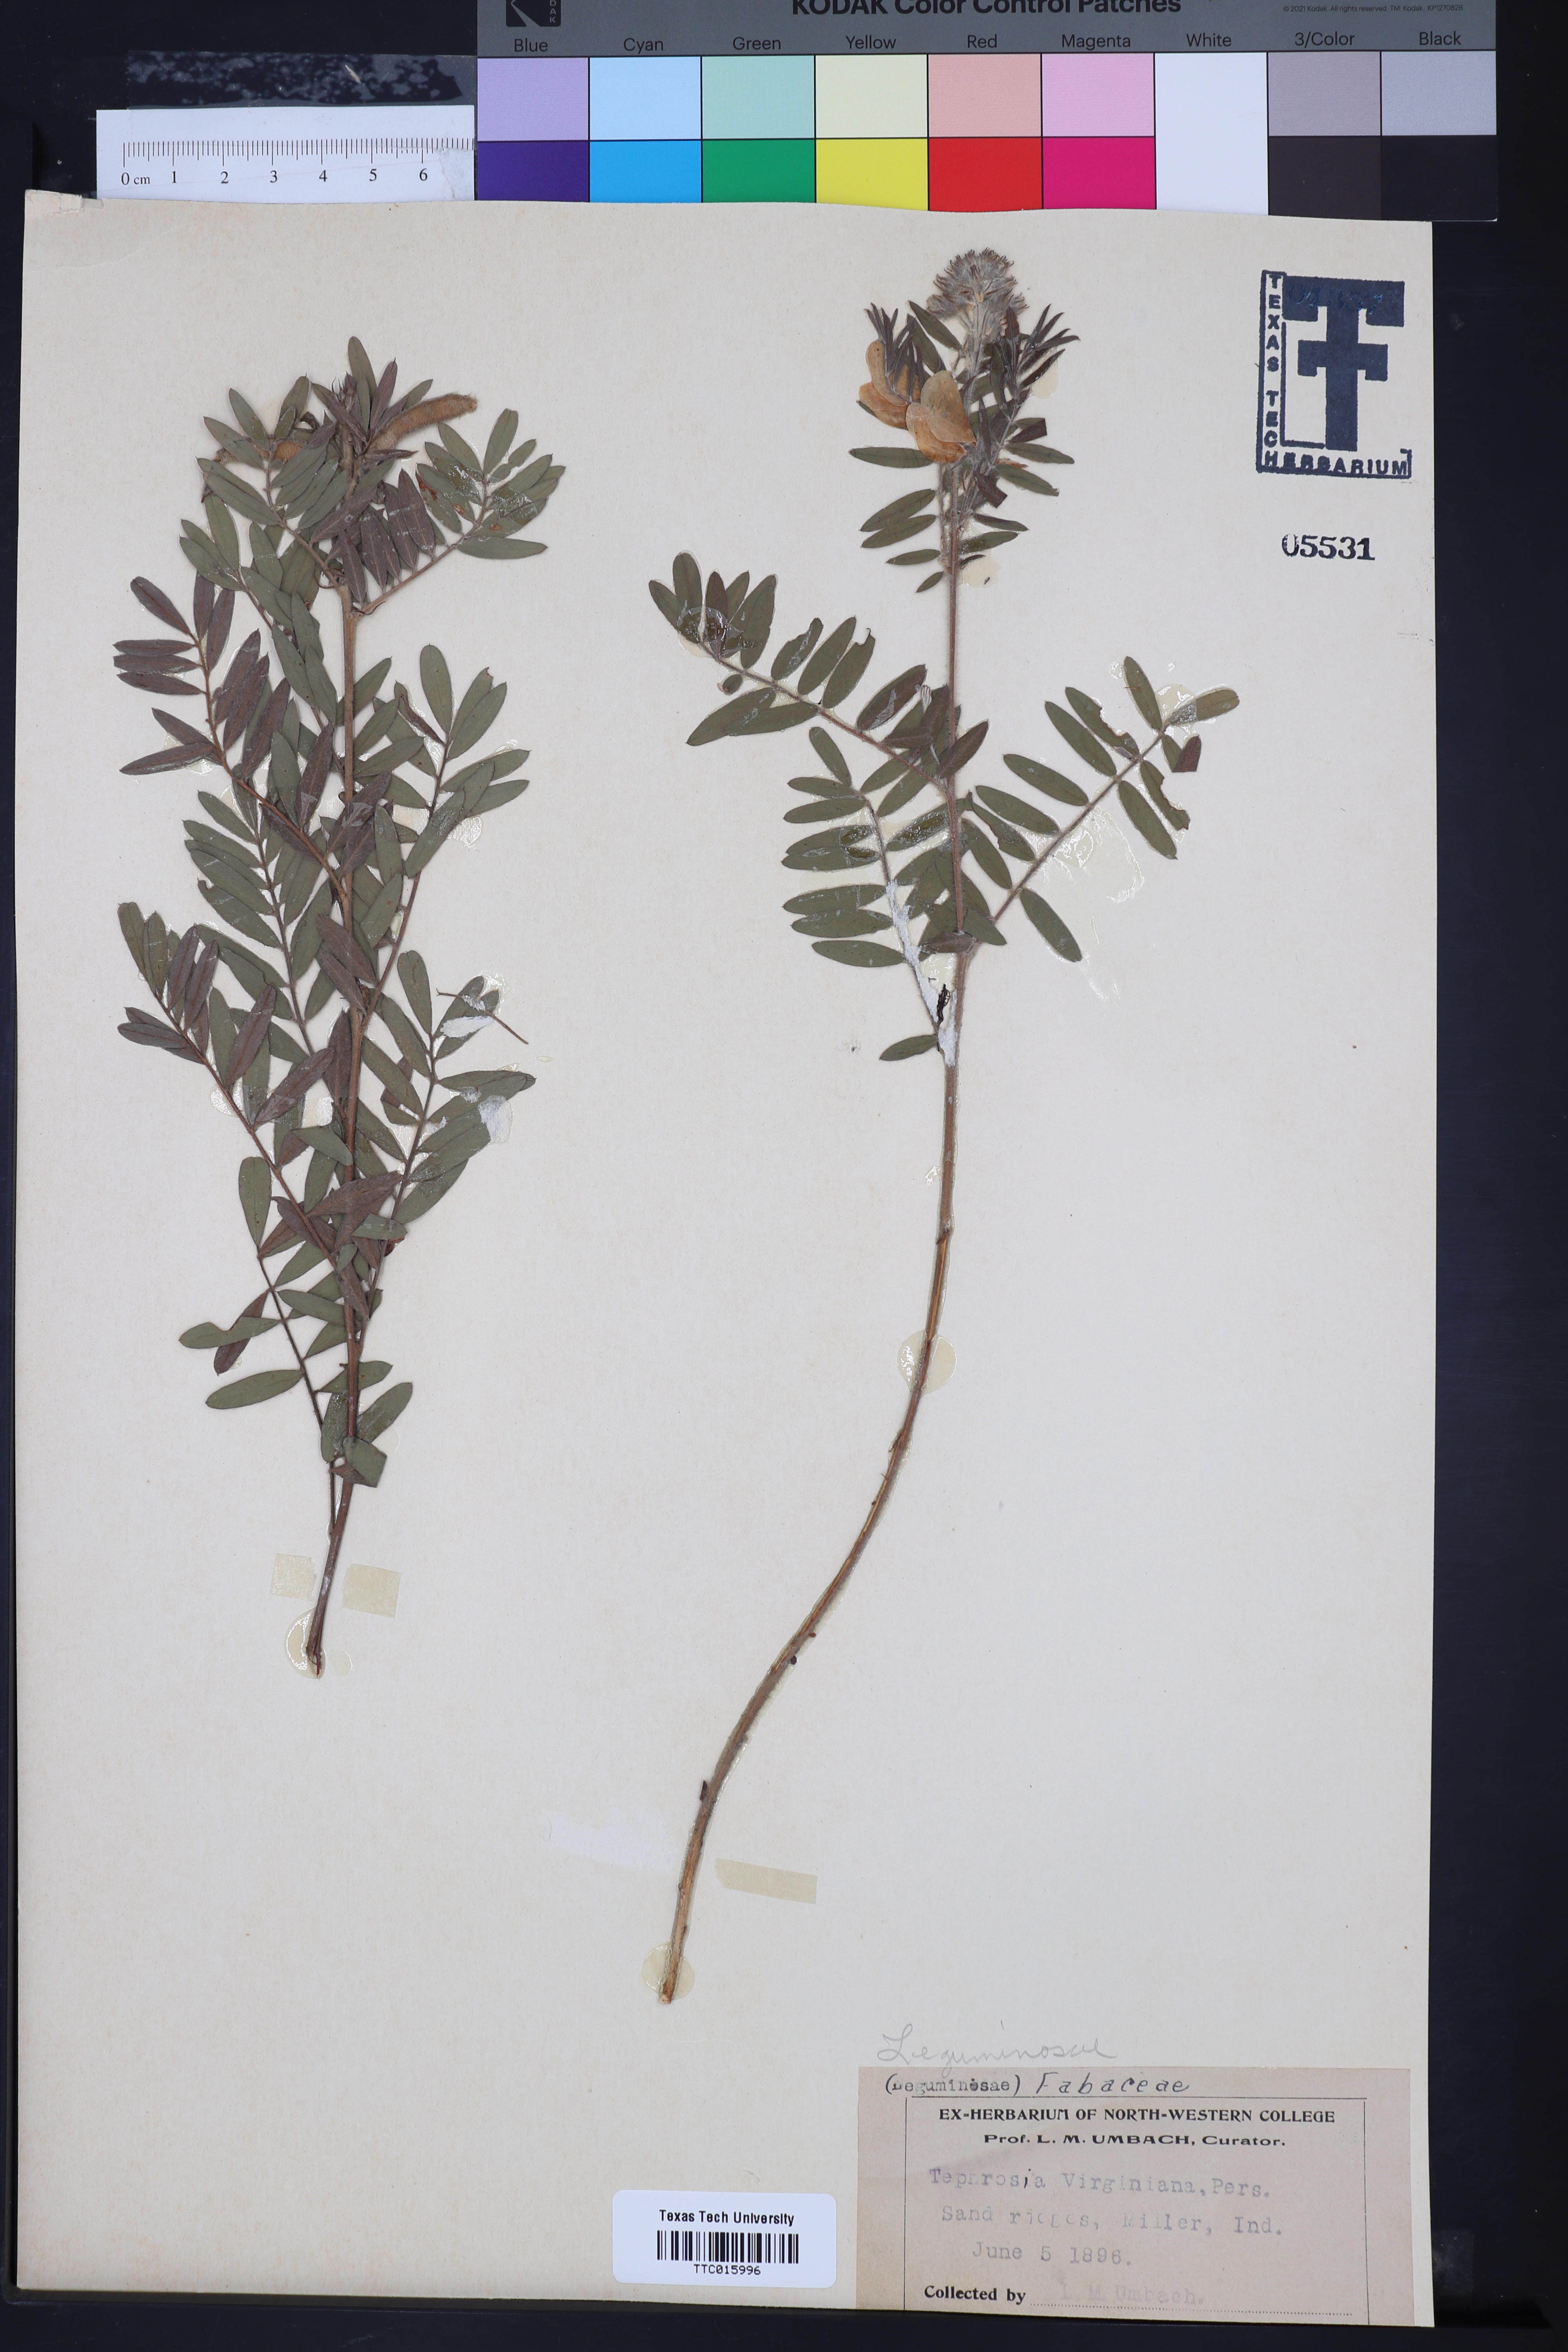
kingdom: Plantae
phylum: Tracheophyta
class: Magnoliopsida
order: Fabales
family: Fabaceae
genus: Tephrosia
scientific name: Tephrosia virginiana
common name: Rabbit-pea
